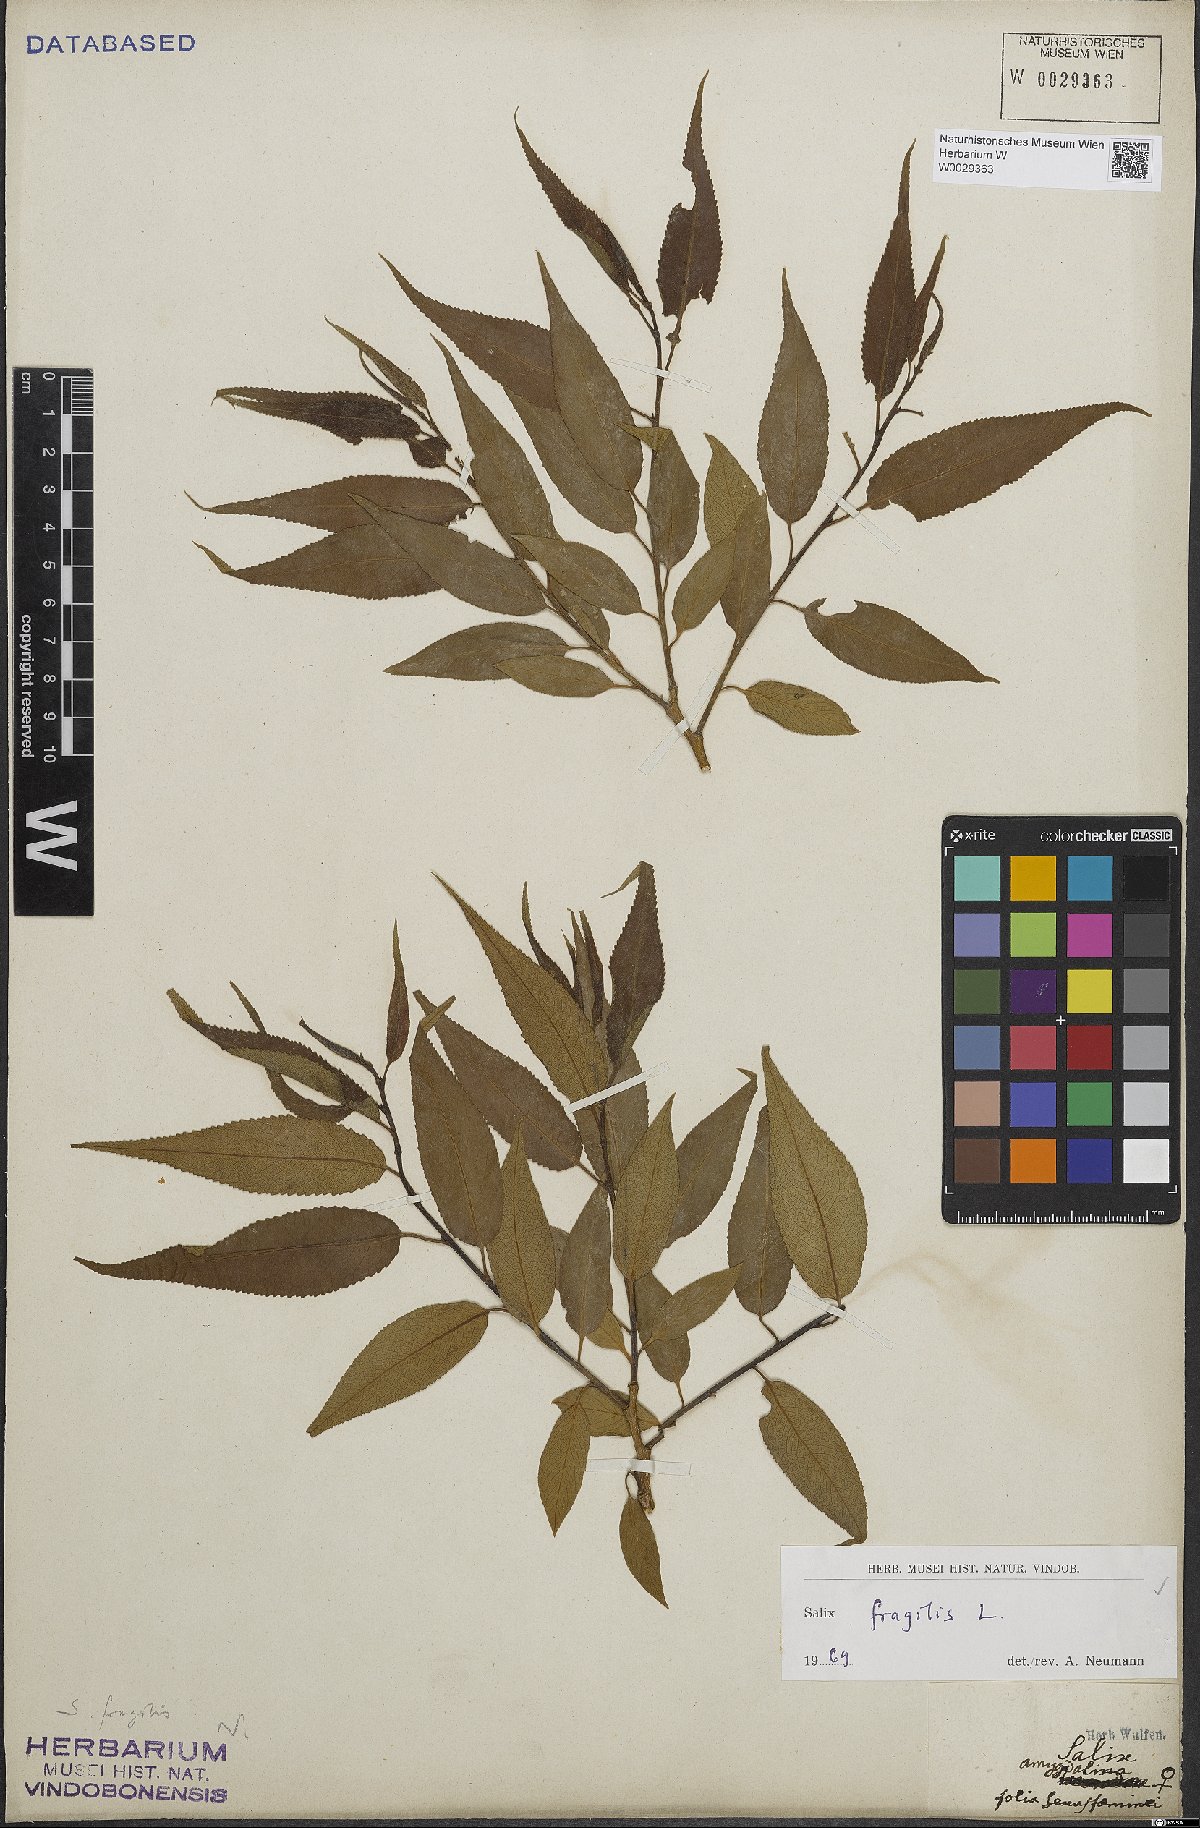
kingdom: Plantae
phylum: Tracheophyta
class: Magnoliopsida
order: Malpighiales
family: Salicaceae
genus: Salix
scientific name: Salix fragilis
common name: Crack willow
